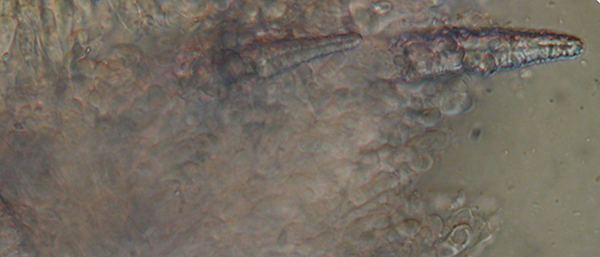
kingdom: Fungi
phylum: Basidiomycota
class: Agaricomycetes
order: Polyporales
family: Phanerochaetaceae
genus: Phlebiopsis
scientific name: Phlebiopsis gigantea
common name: kæmpebarksvamp
